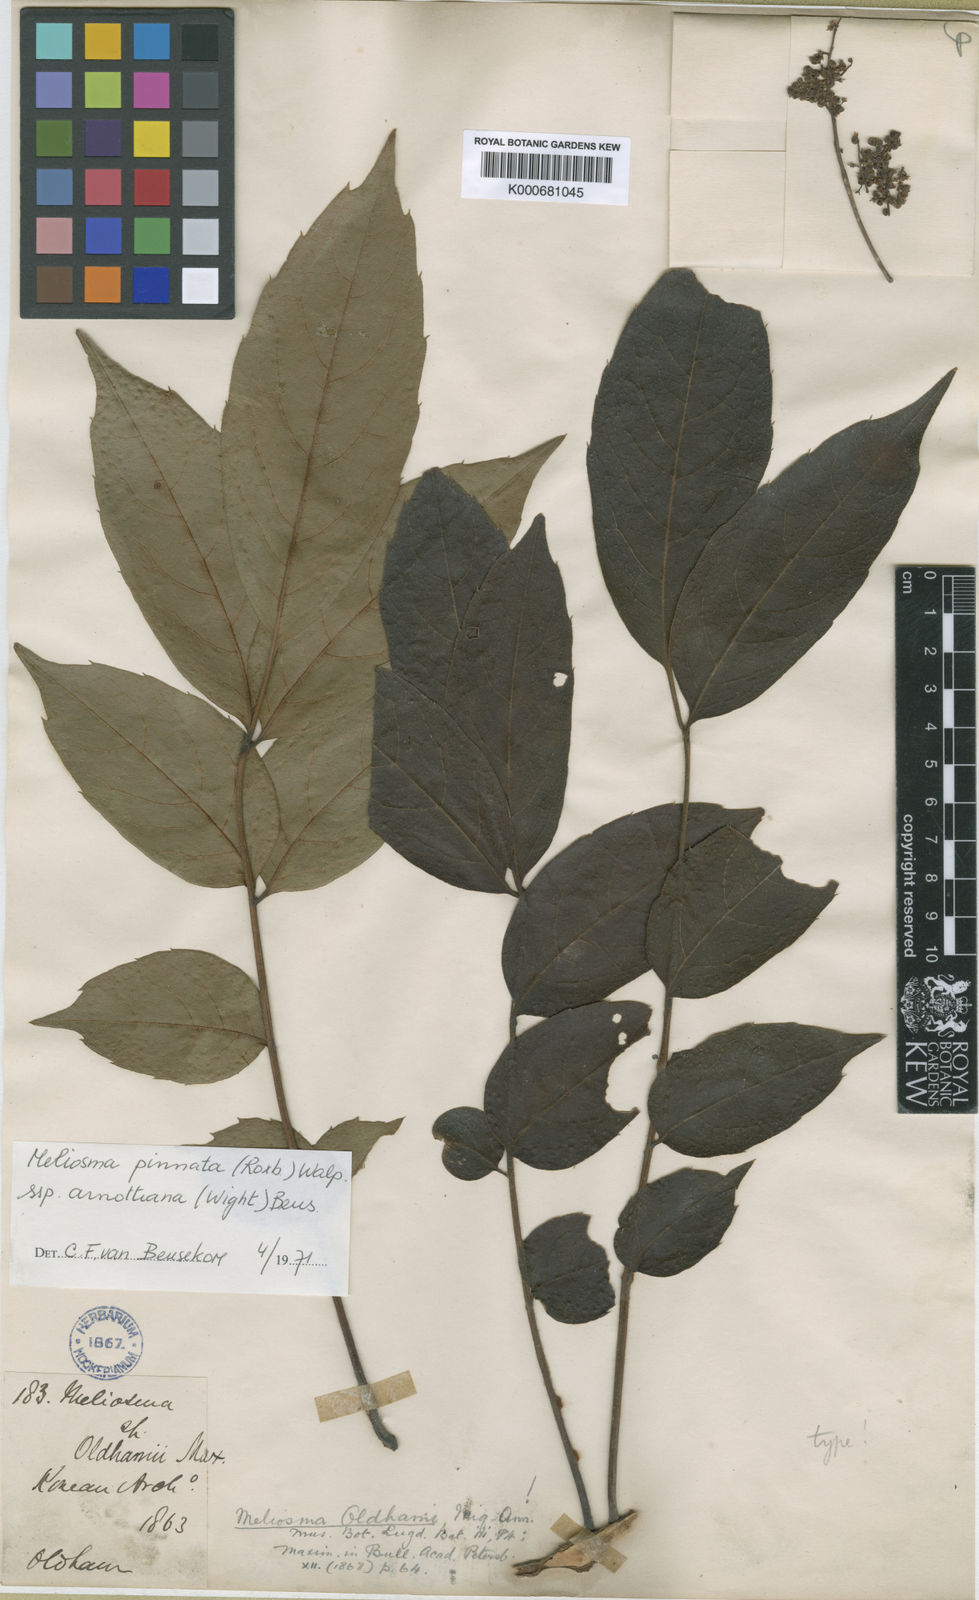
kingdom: Plantae
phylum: Tracheophyta
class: Magnoliopsida
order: Proteales
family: Sabiaceae
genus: Meliosma
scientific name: Meliosma pinnata
